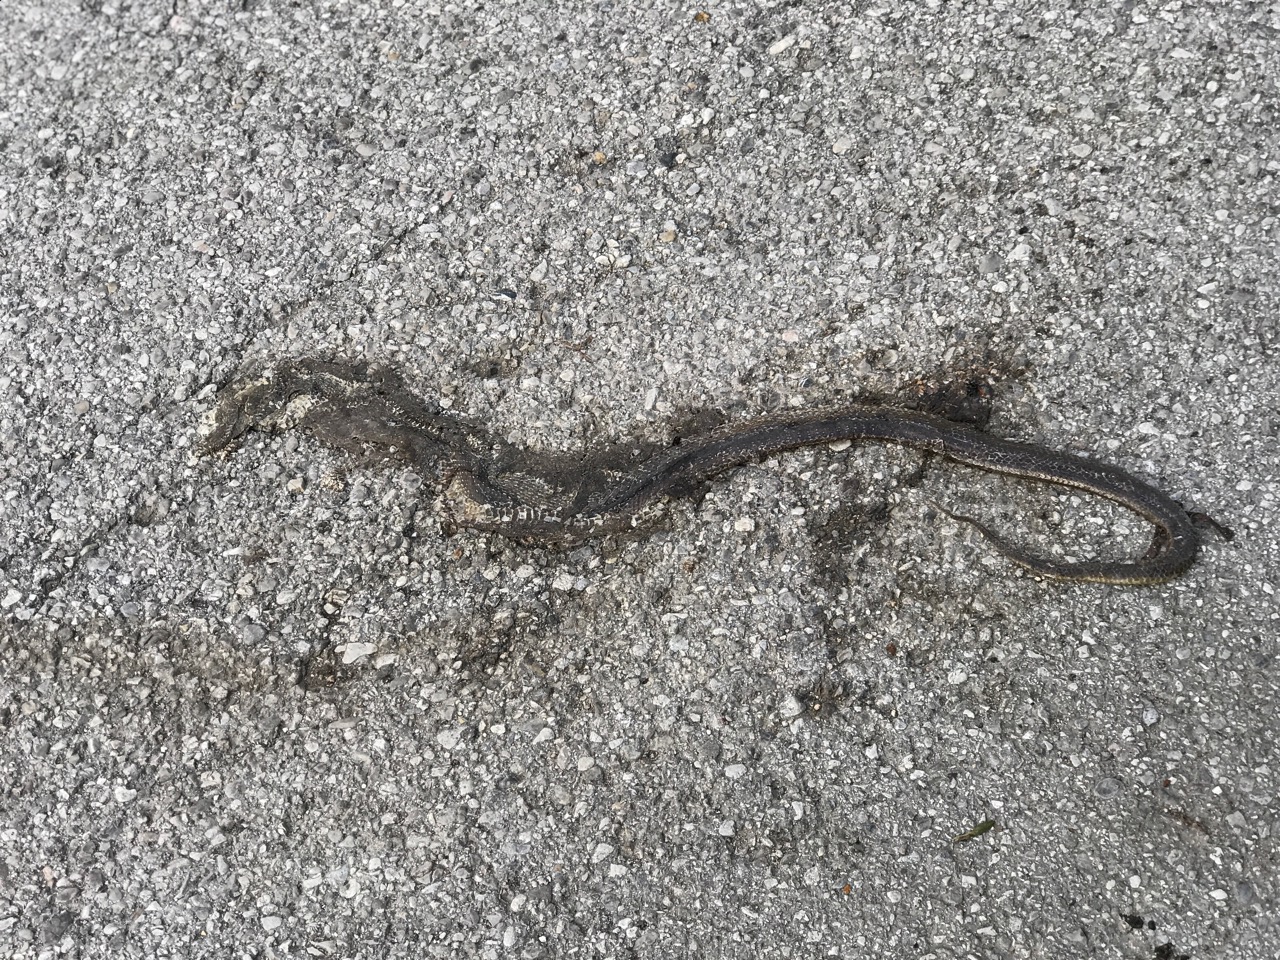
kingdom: Animalia
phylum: Chordata
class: Squamata
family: Colubridae
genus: Zamenis
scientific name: Zamenis longissimus
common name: Aesculapean snake
